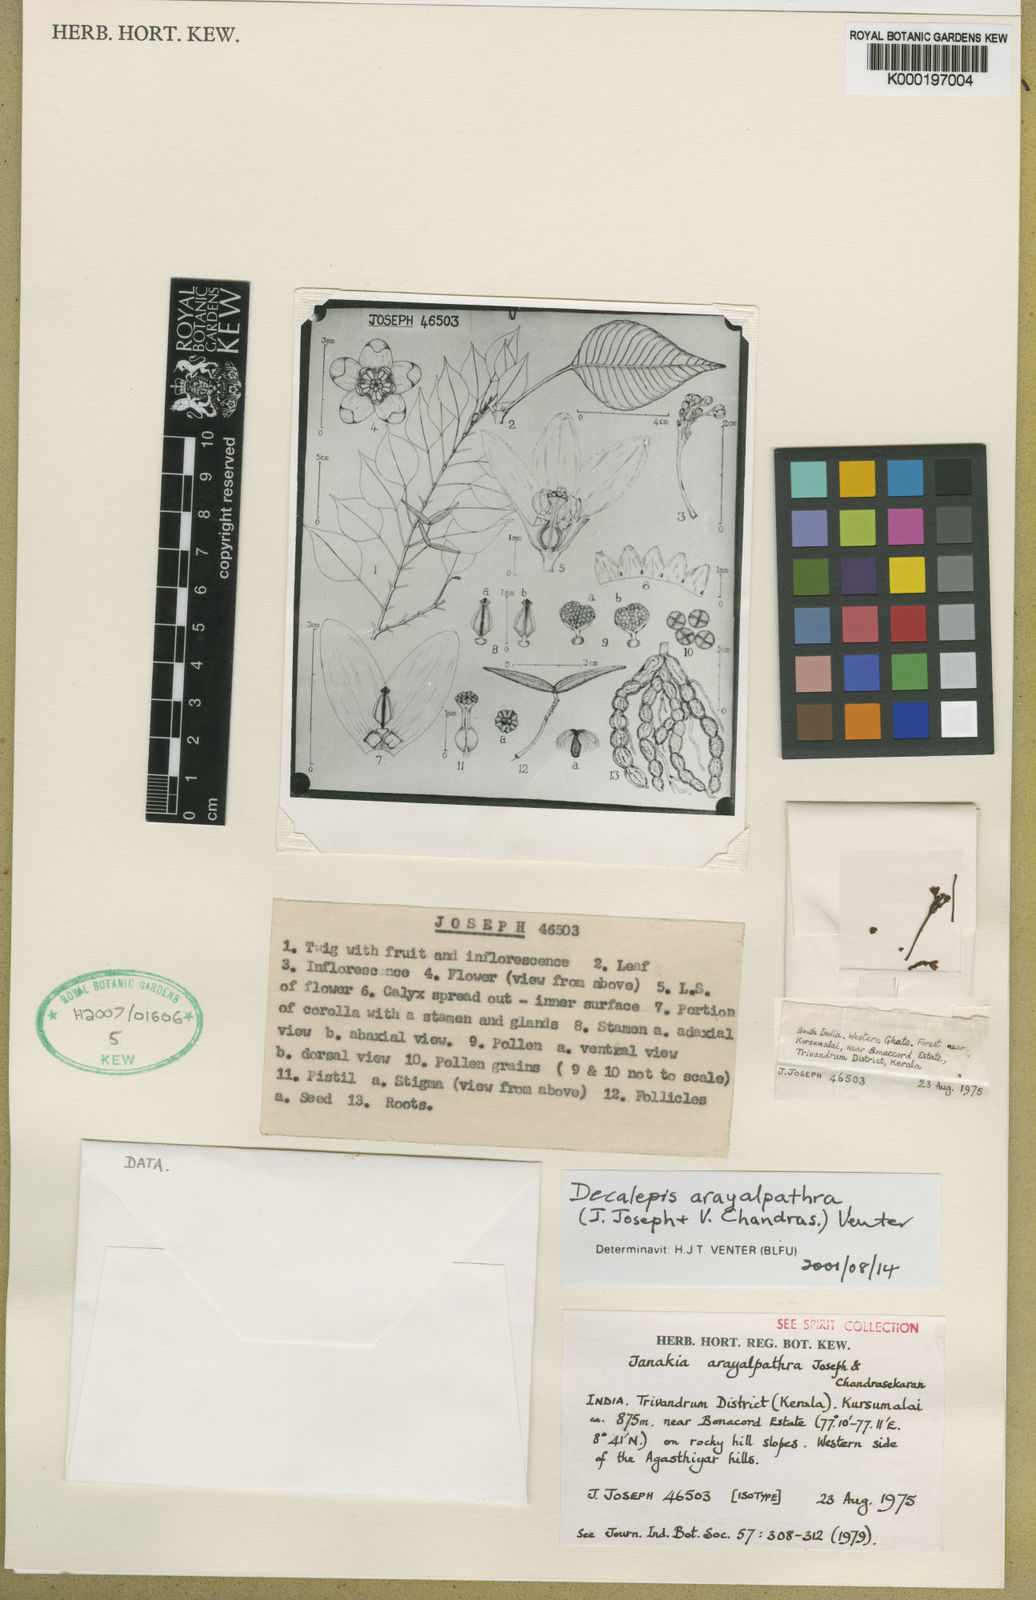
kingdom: Plantae
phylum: Tracheophyta
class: Magnoliopsida
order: Gentianales
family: Apocynaceae
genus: Decalepis
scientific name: Decalepis arayalpathra
